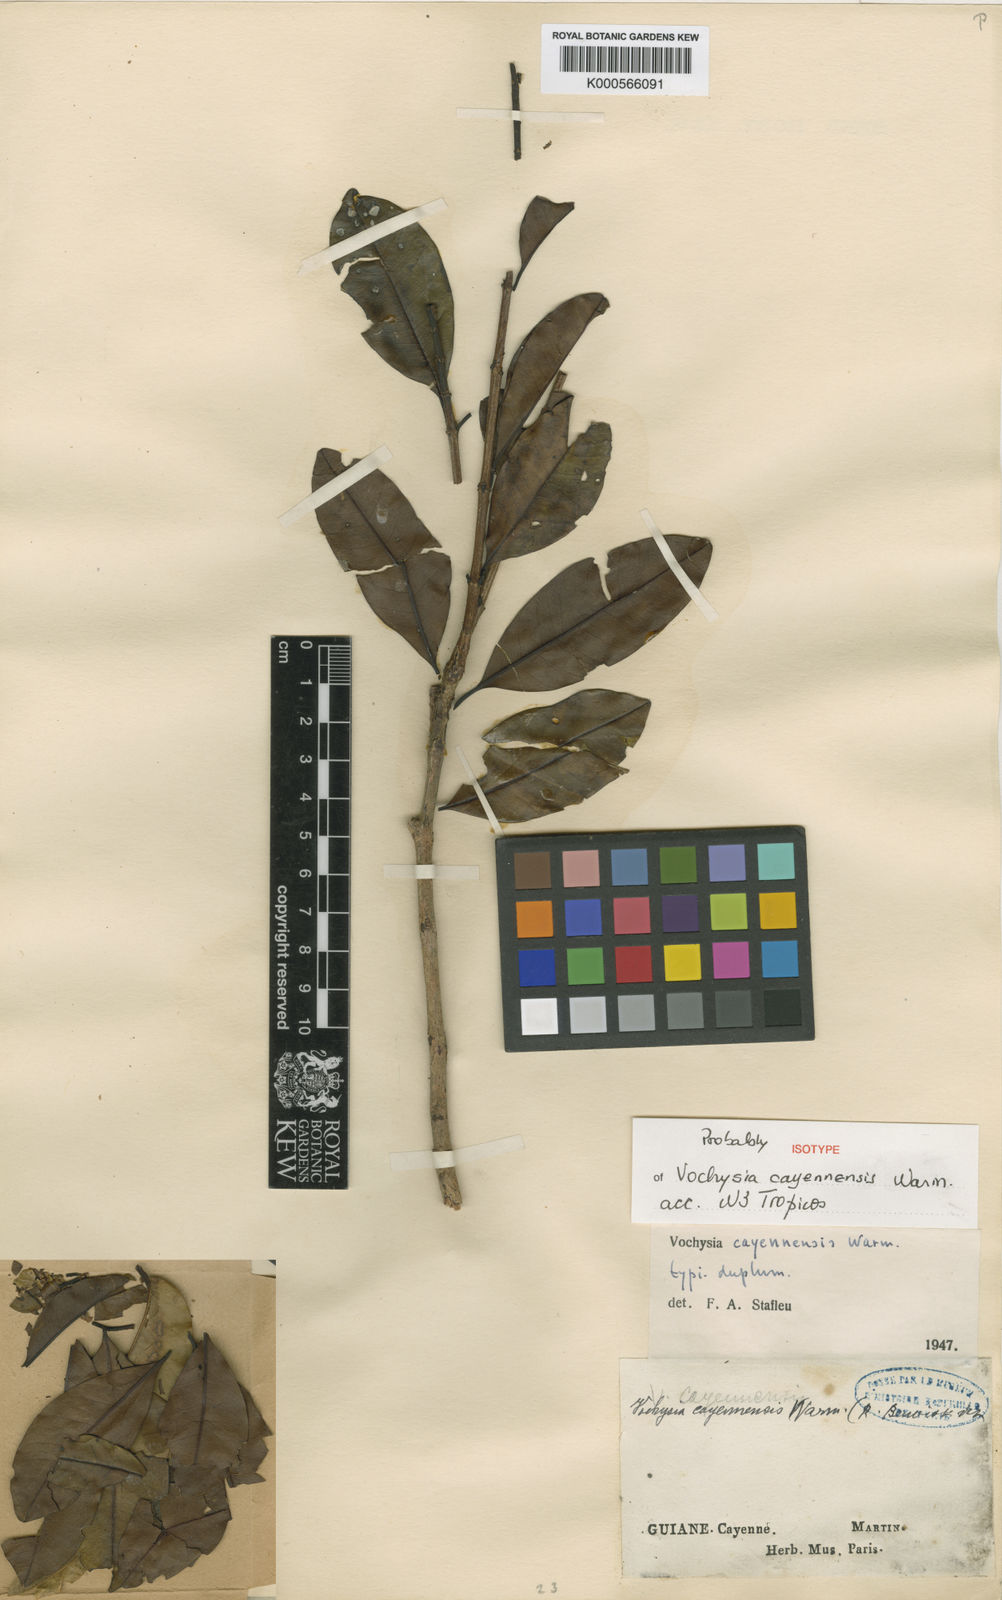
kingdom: Plantae
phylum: Tracheophyta
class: Magnoliopsida
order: Myrtales
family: Vochysiaceae
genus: Vochysia
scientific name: Vochysia cayennensis
